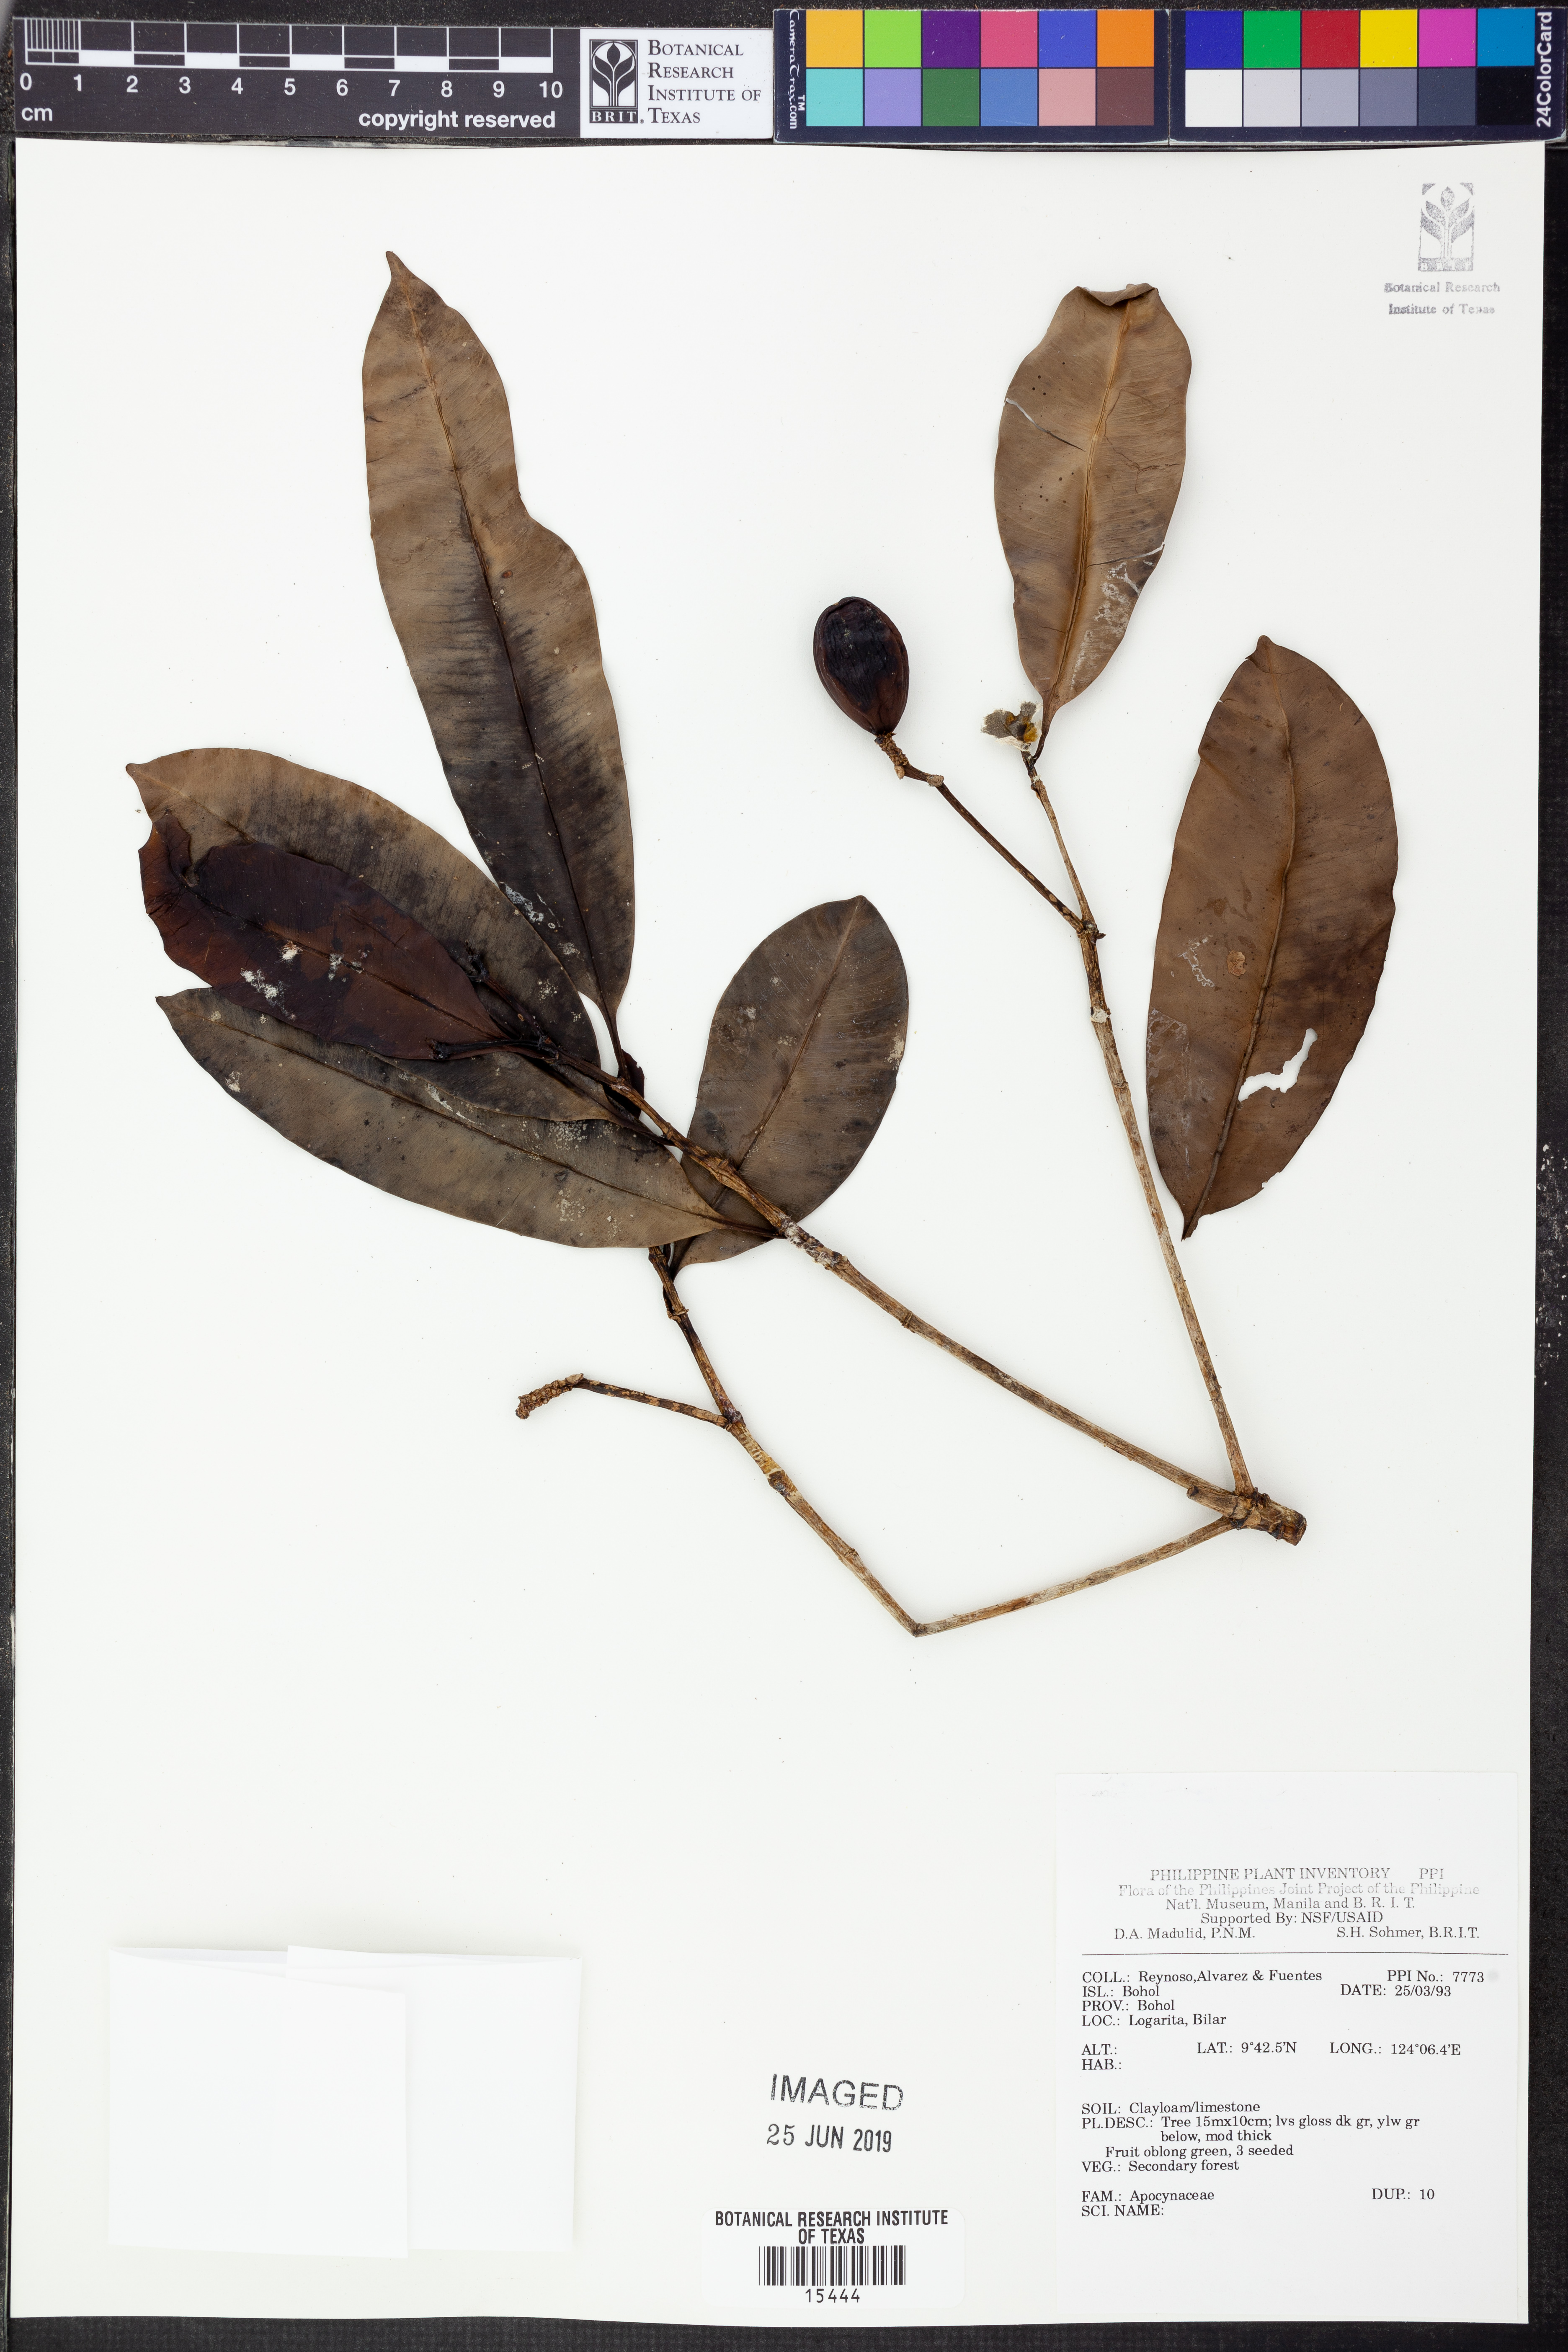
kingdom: Plantae
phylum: Tracheophyta
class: Magnoliopsida
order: Gentianales
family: Apocynaceae
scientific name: Apocynaceae
